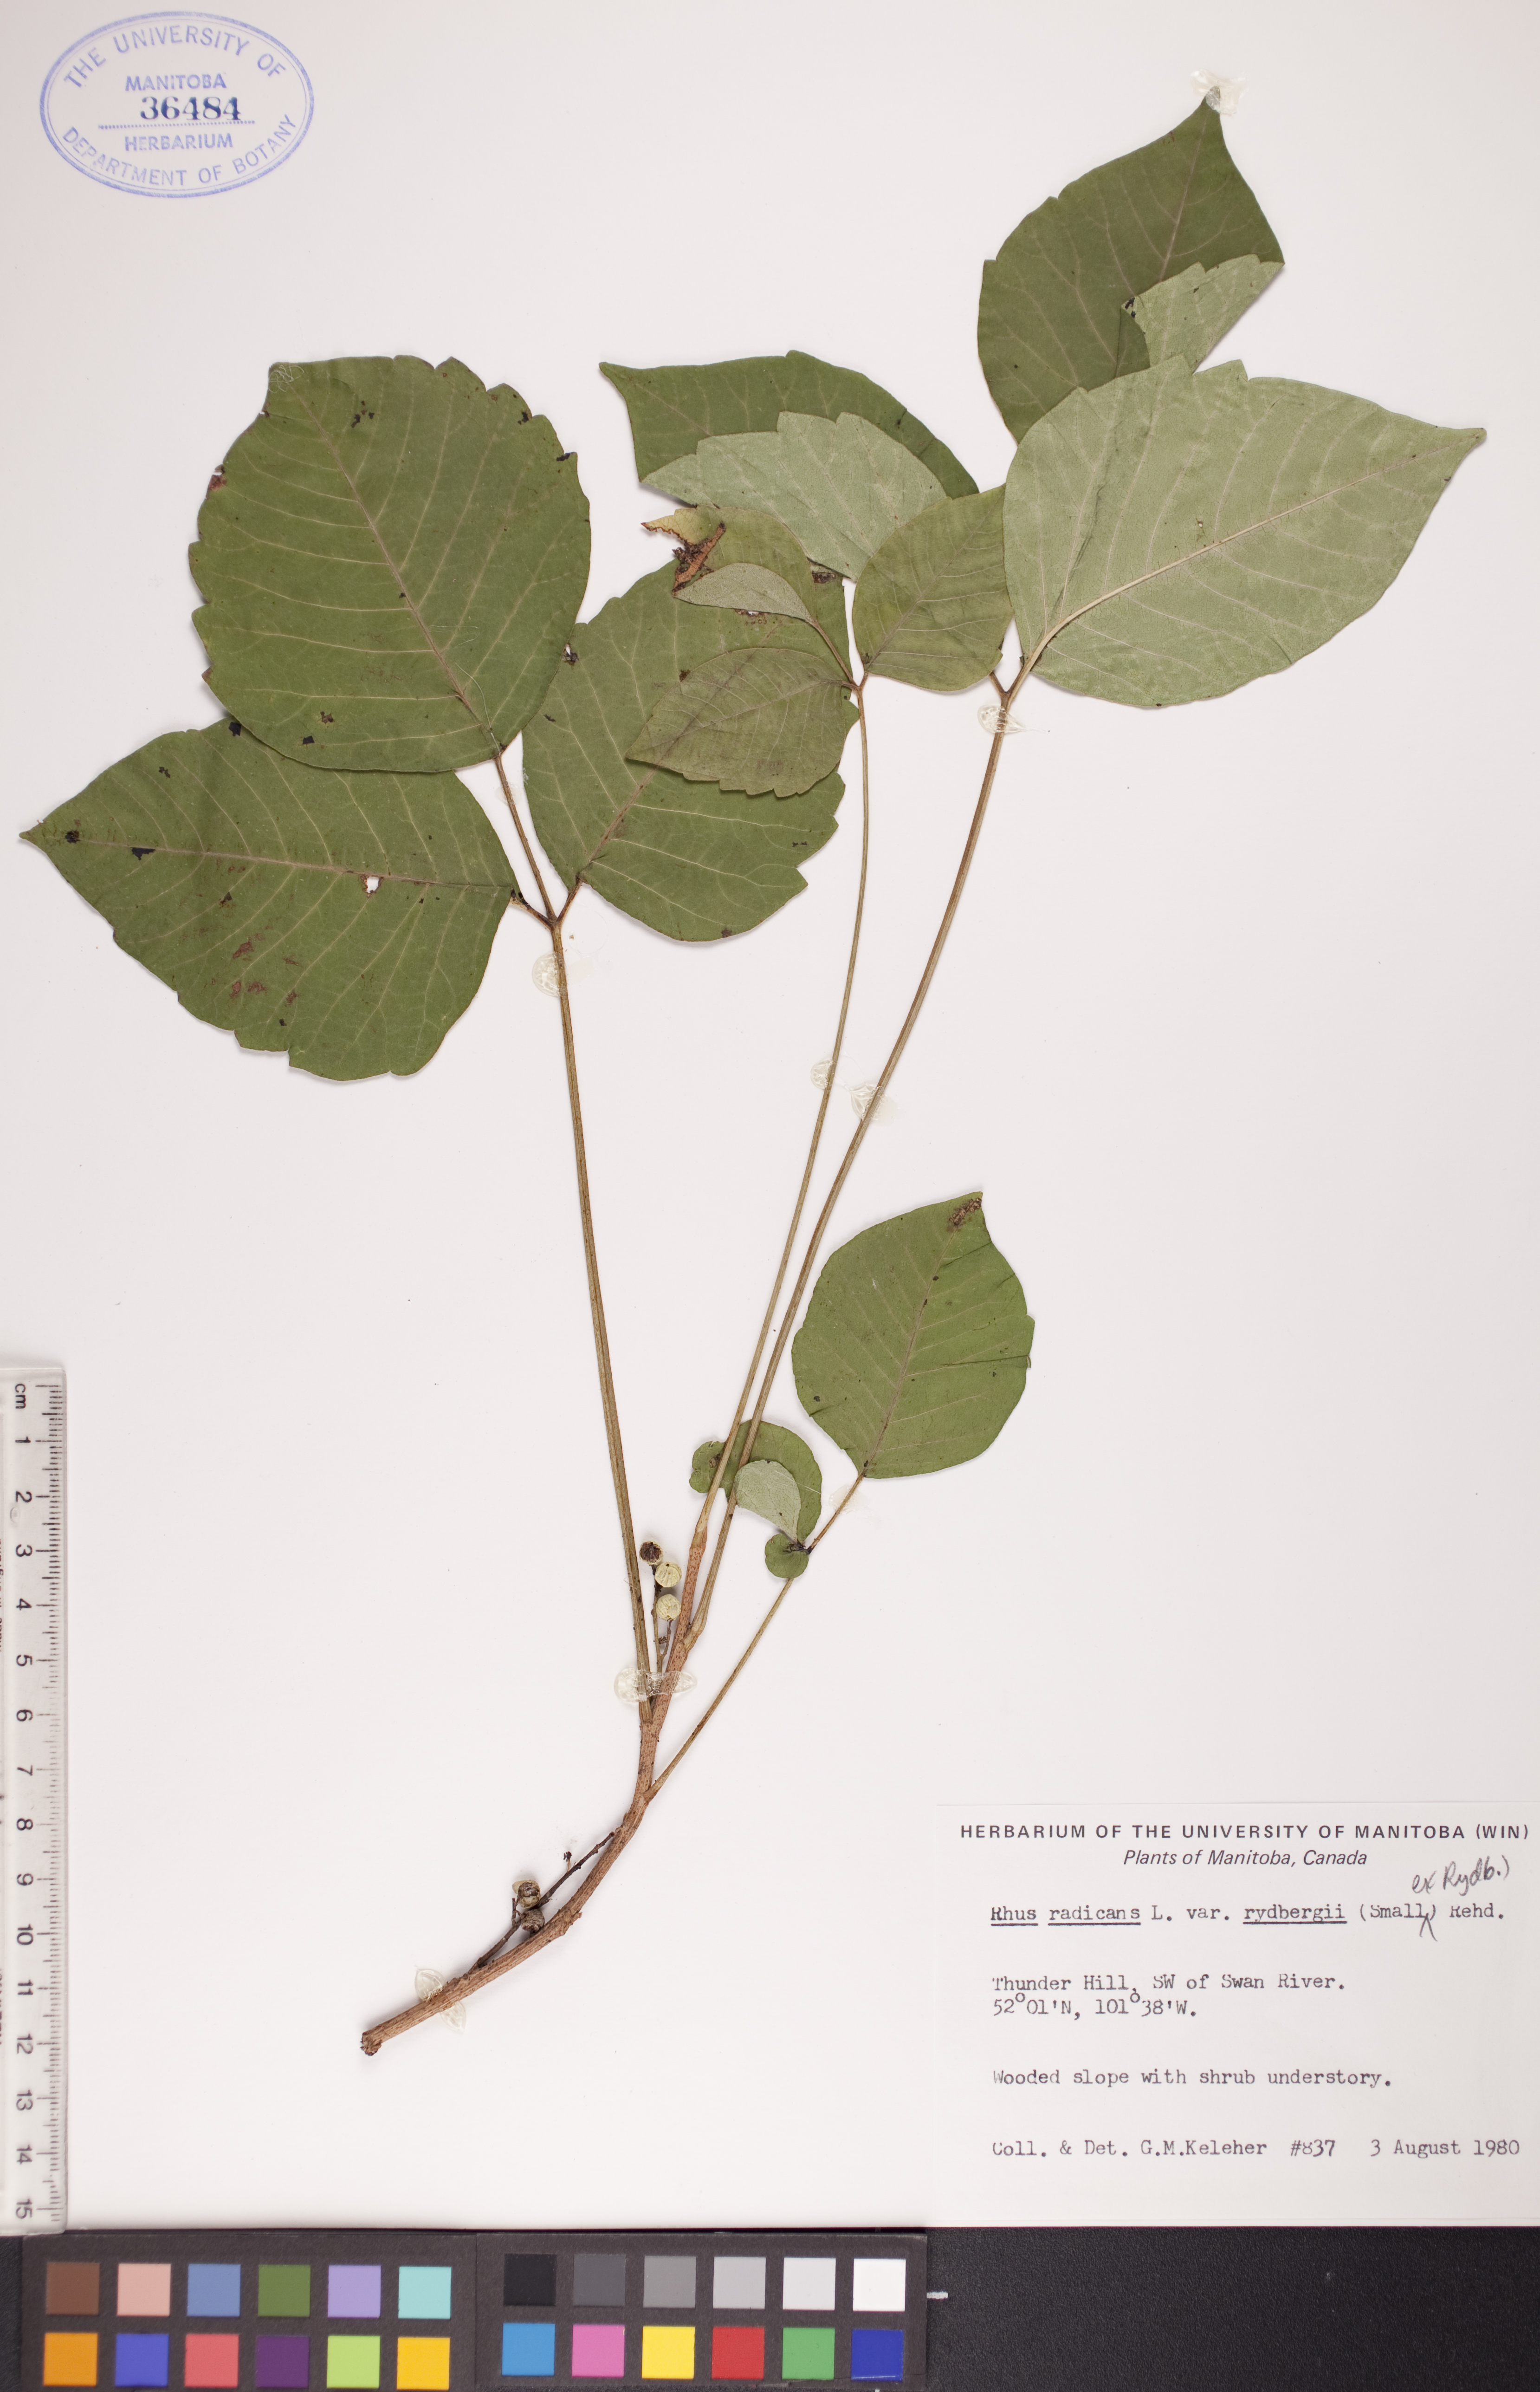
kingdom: Plantae
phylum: Tracheophyta
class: Magnoliopsida
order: Sapindales
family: Anacardiaceae
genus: Toxicodendron
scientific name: Toxicodendron rydbergii
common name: Rydberg's poison-ivy
